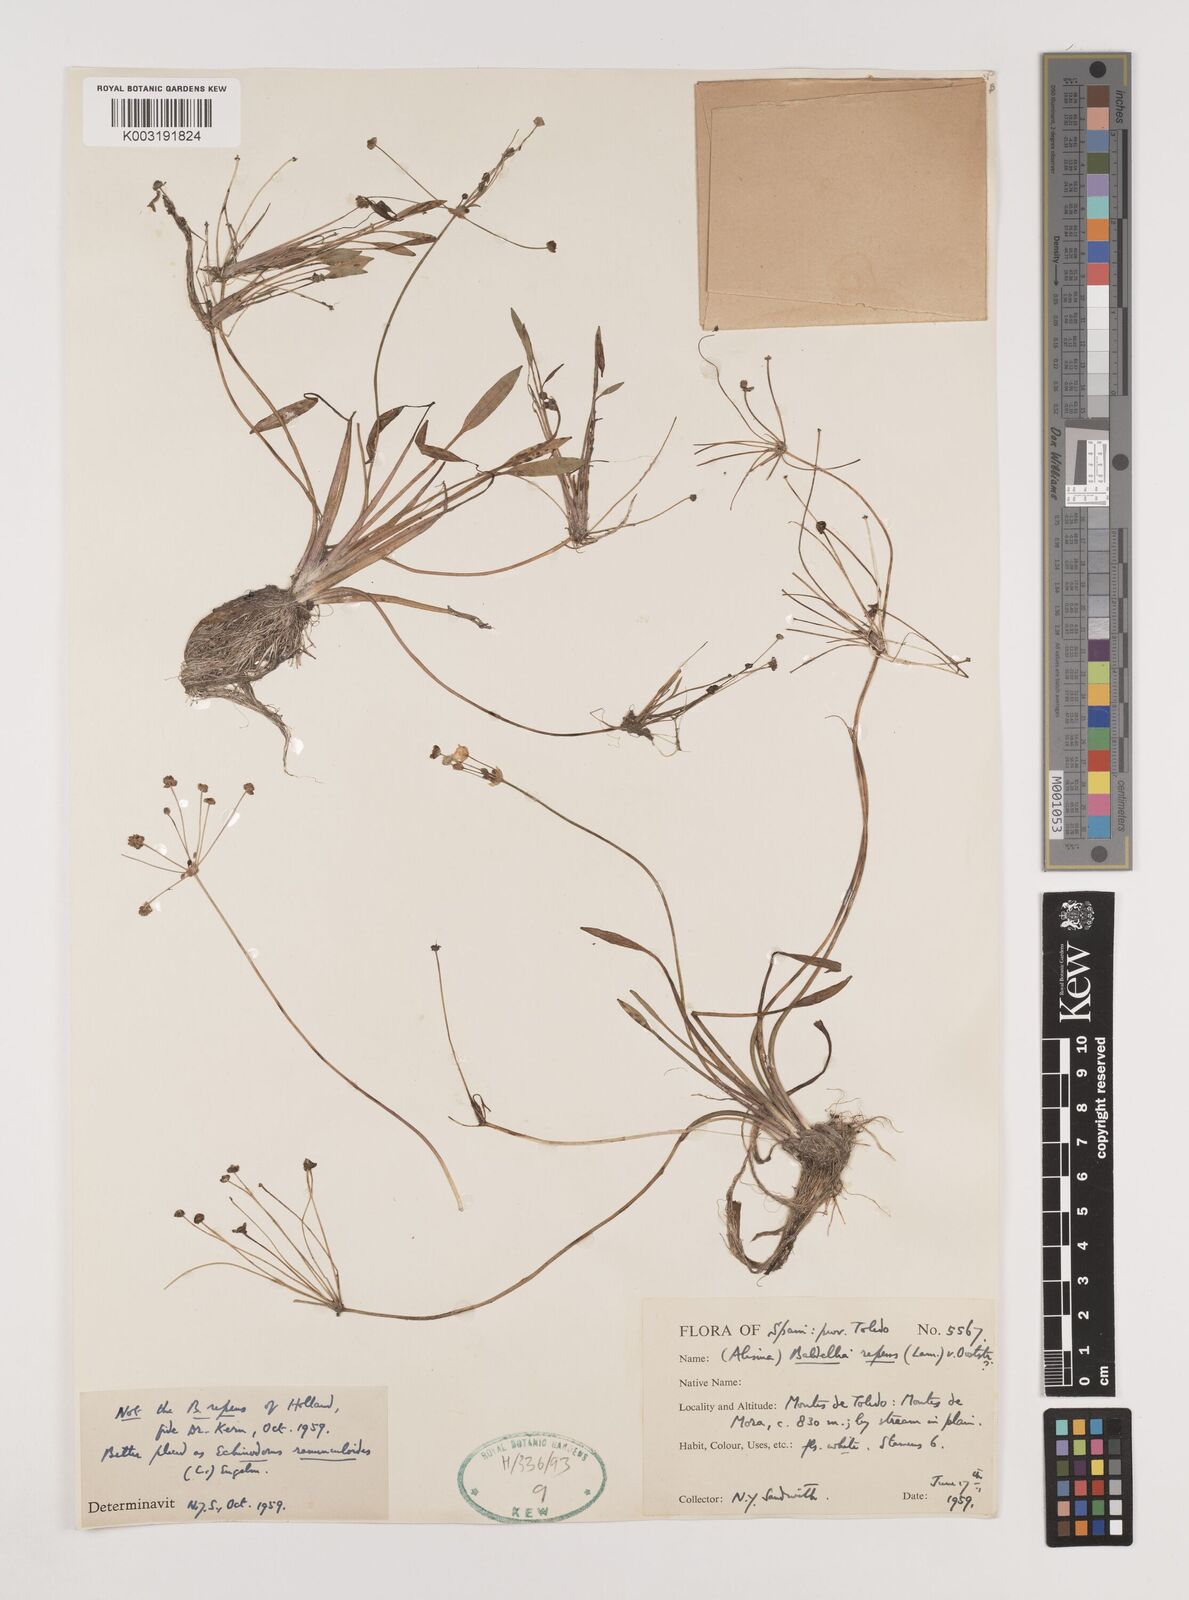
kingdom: Plantae
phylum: Tracheophyta
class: Liliopsida
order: Alismatales
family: Alismataceae
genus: Baldellia
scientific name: Baldellia ranunculoides
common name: Lesser water-plantain
